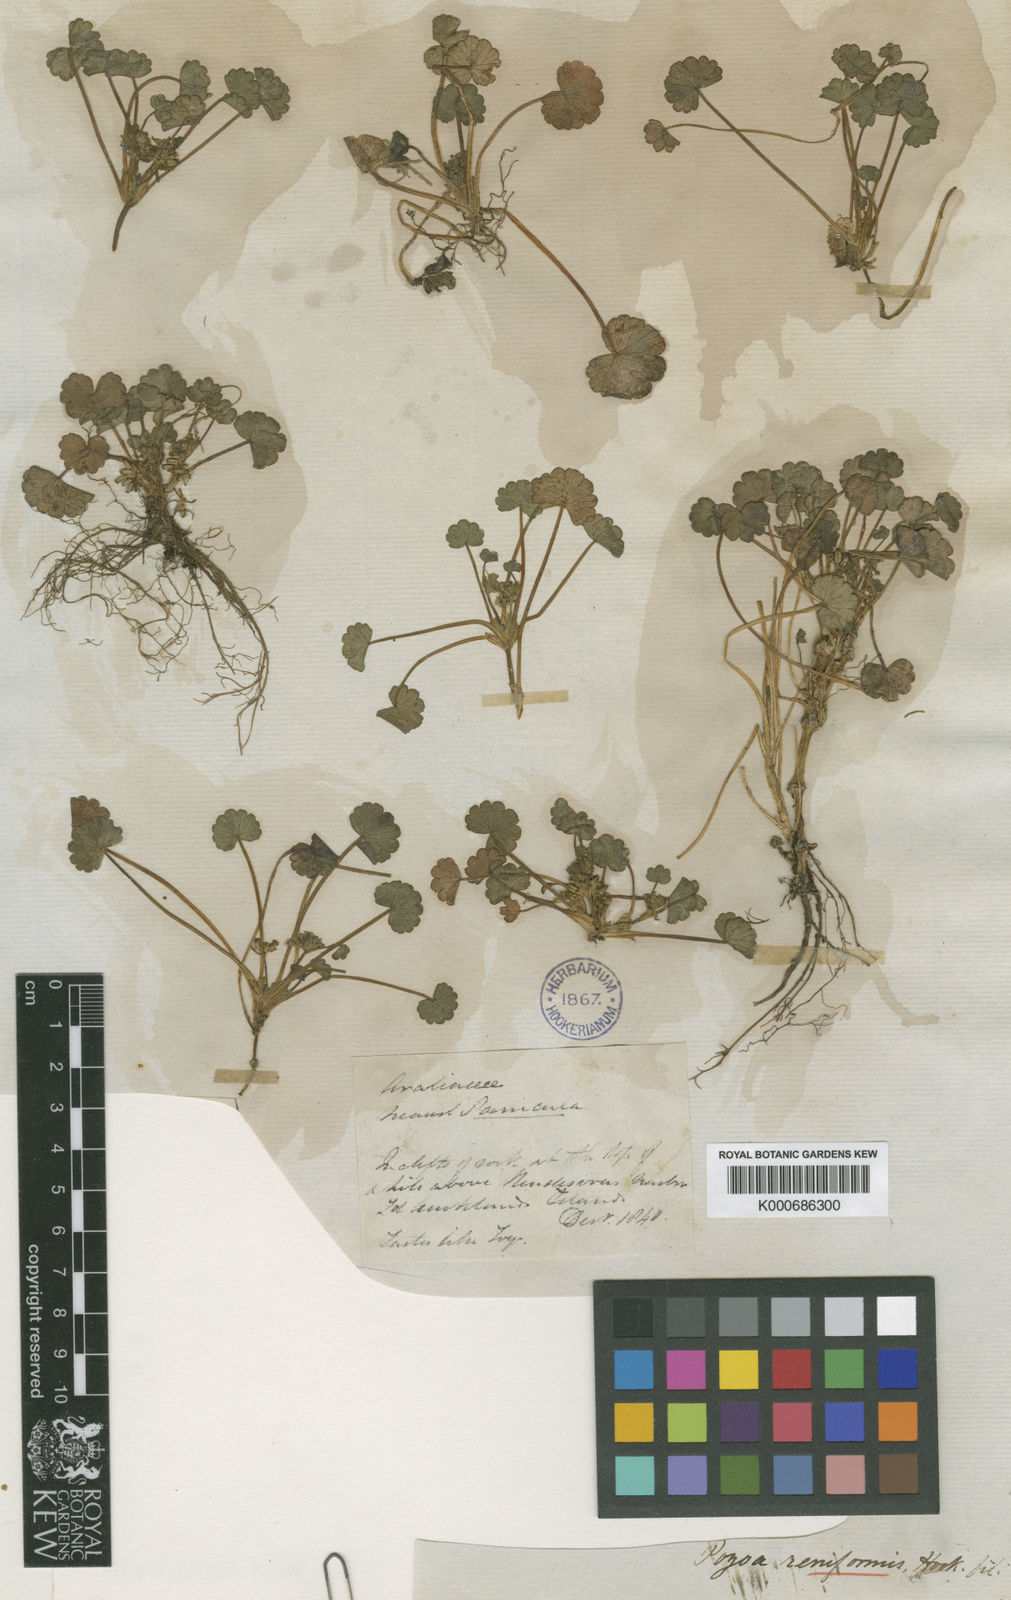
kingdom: Plantae
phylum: Tracheophyta
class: Magnoliopsida
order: Apiales
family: Apiaceae
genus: Azorella
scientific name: Azorella schizeilema
